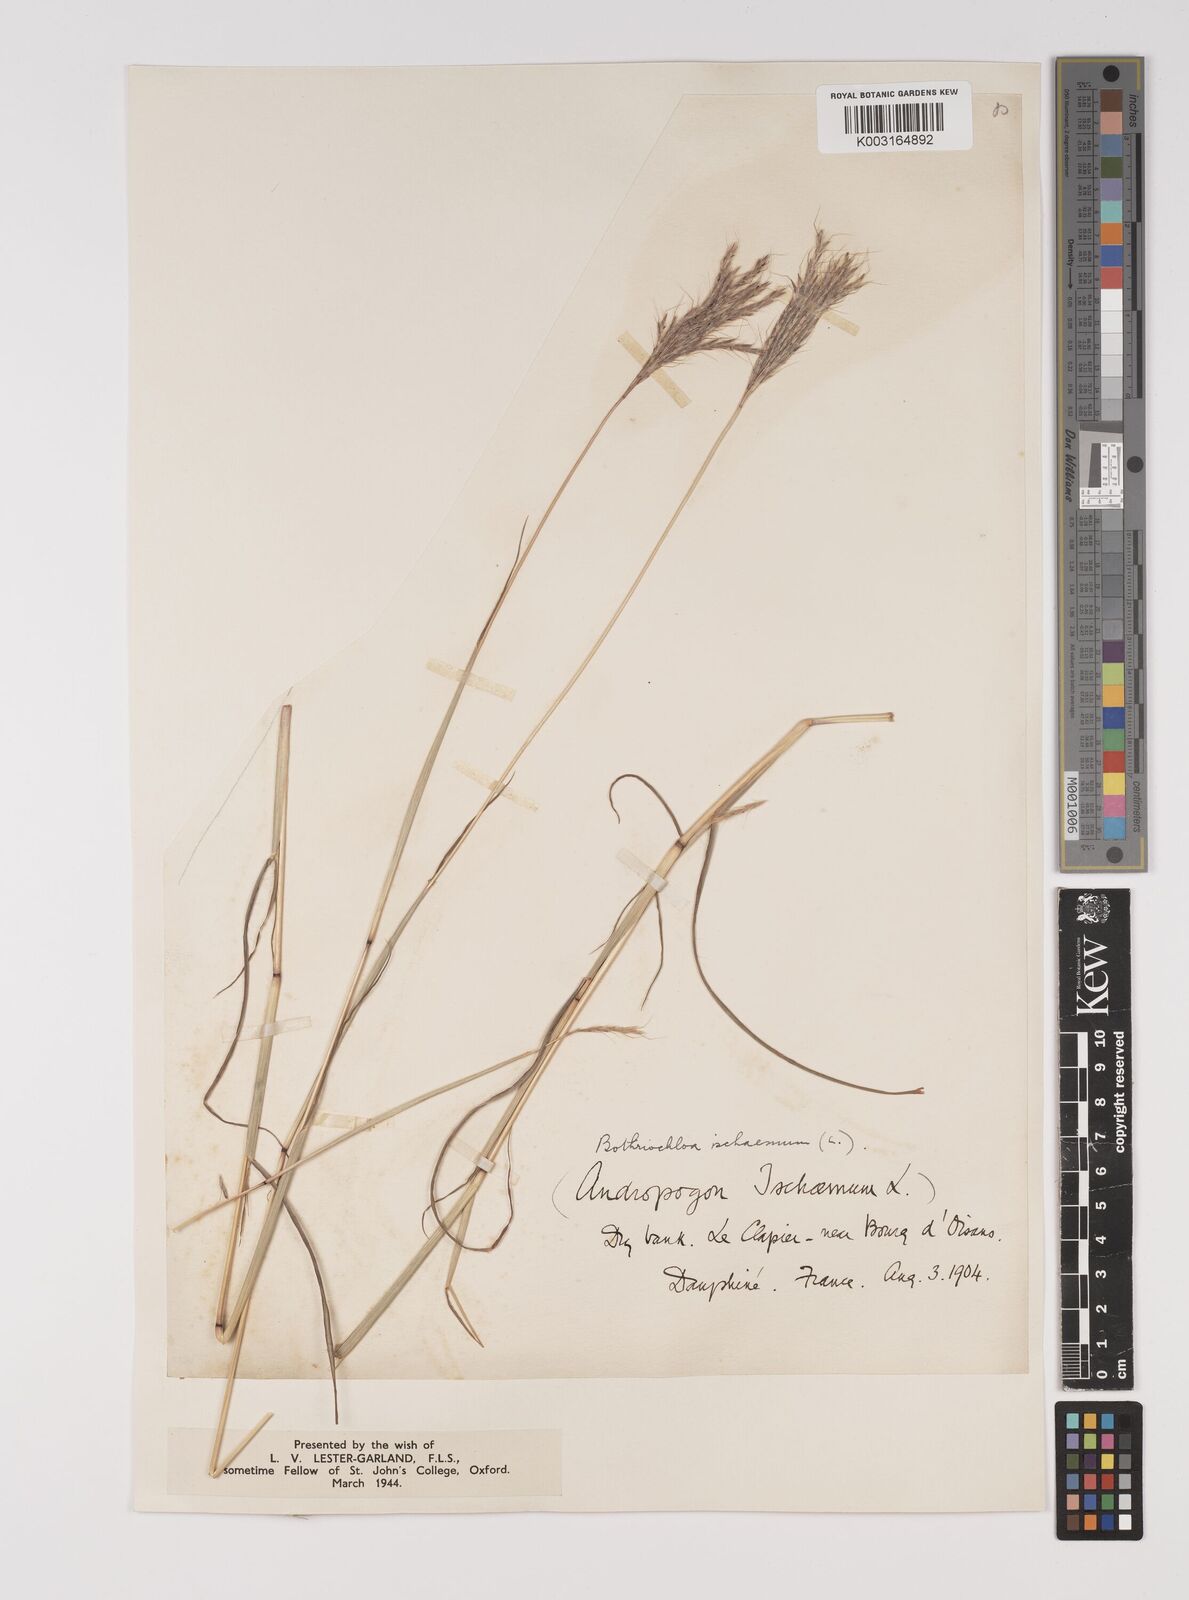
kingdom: Plantae
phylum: Tracheophyta
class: Liliopsida
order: Poales
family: Poaceae
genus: Bothriochloa
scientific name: Bothriochloa ischaemum
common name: Yellow bluestem
